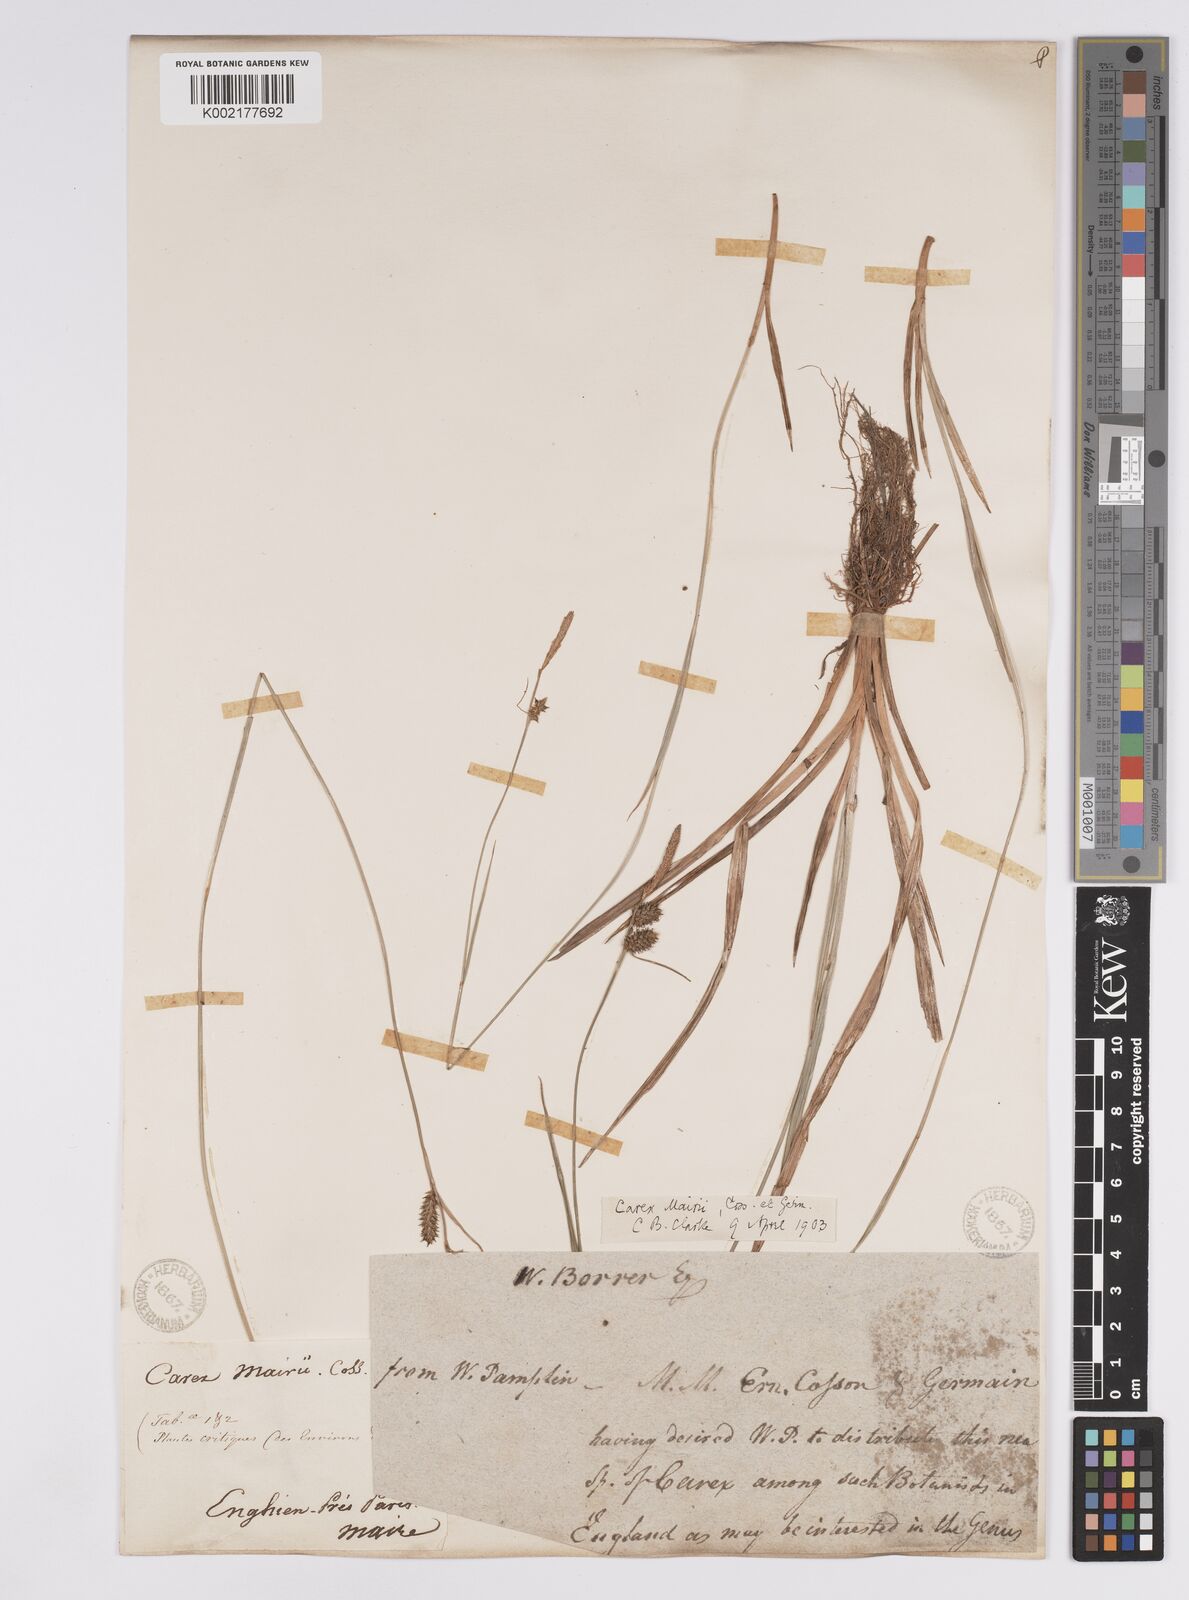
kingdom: Plantae
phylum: Tracheophyta
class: Liliopsida
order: Poales
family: Cyperaceae
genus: Carex
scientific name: Carex mairei
